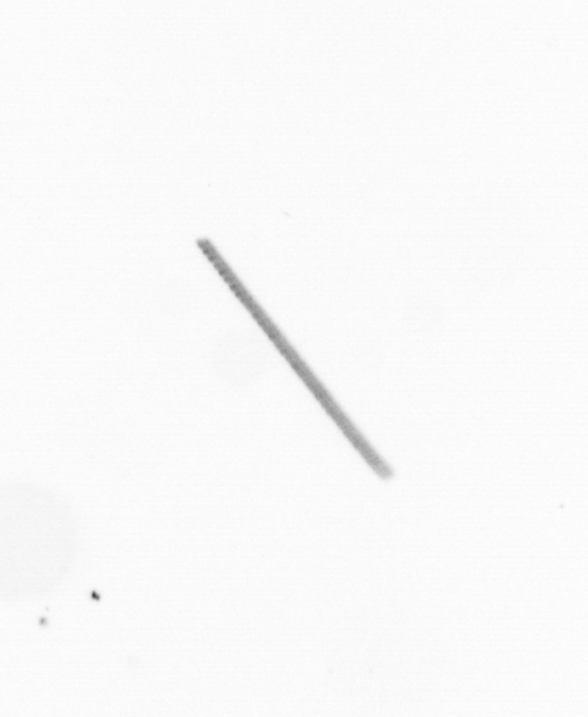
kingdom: Chromista
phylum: Ochrophyta
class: Bacillariophyceae
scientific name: Bacillariophyceae
